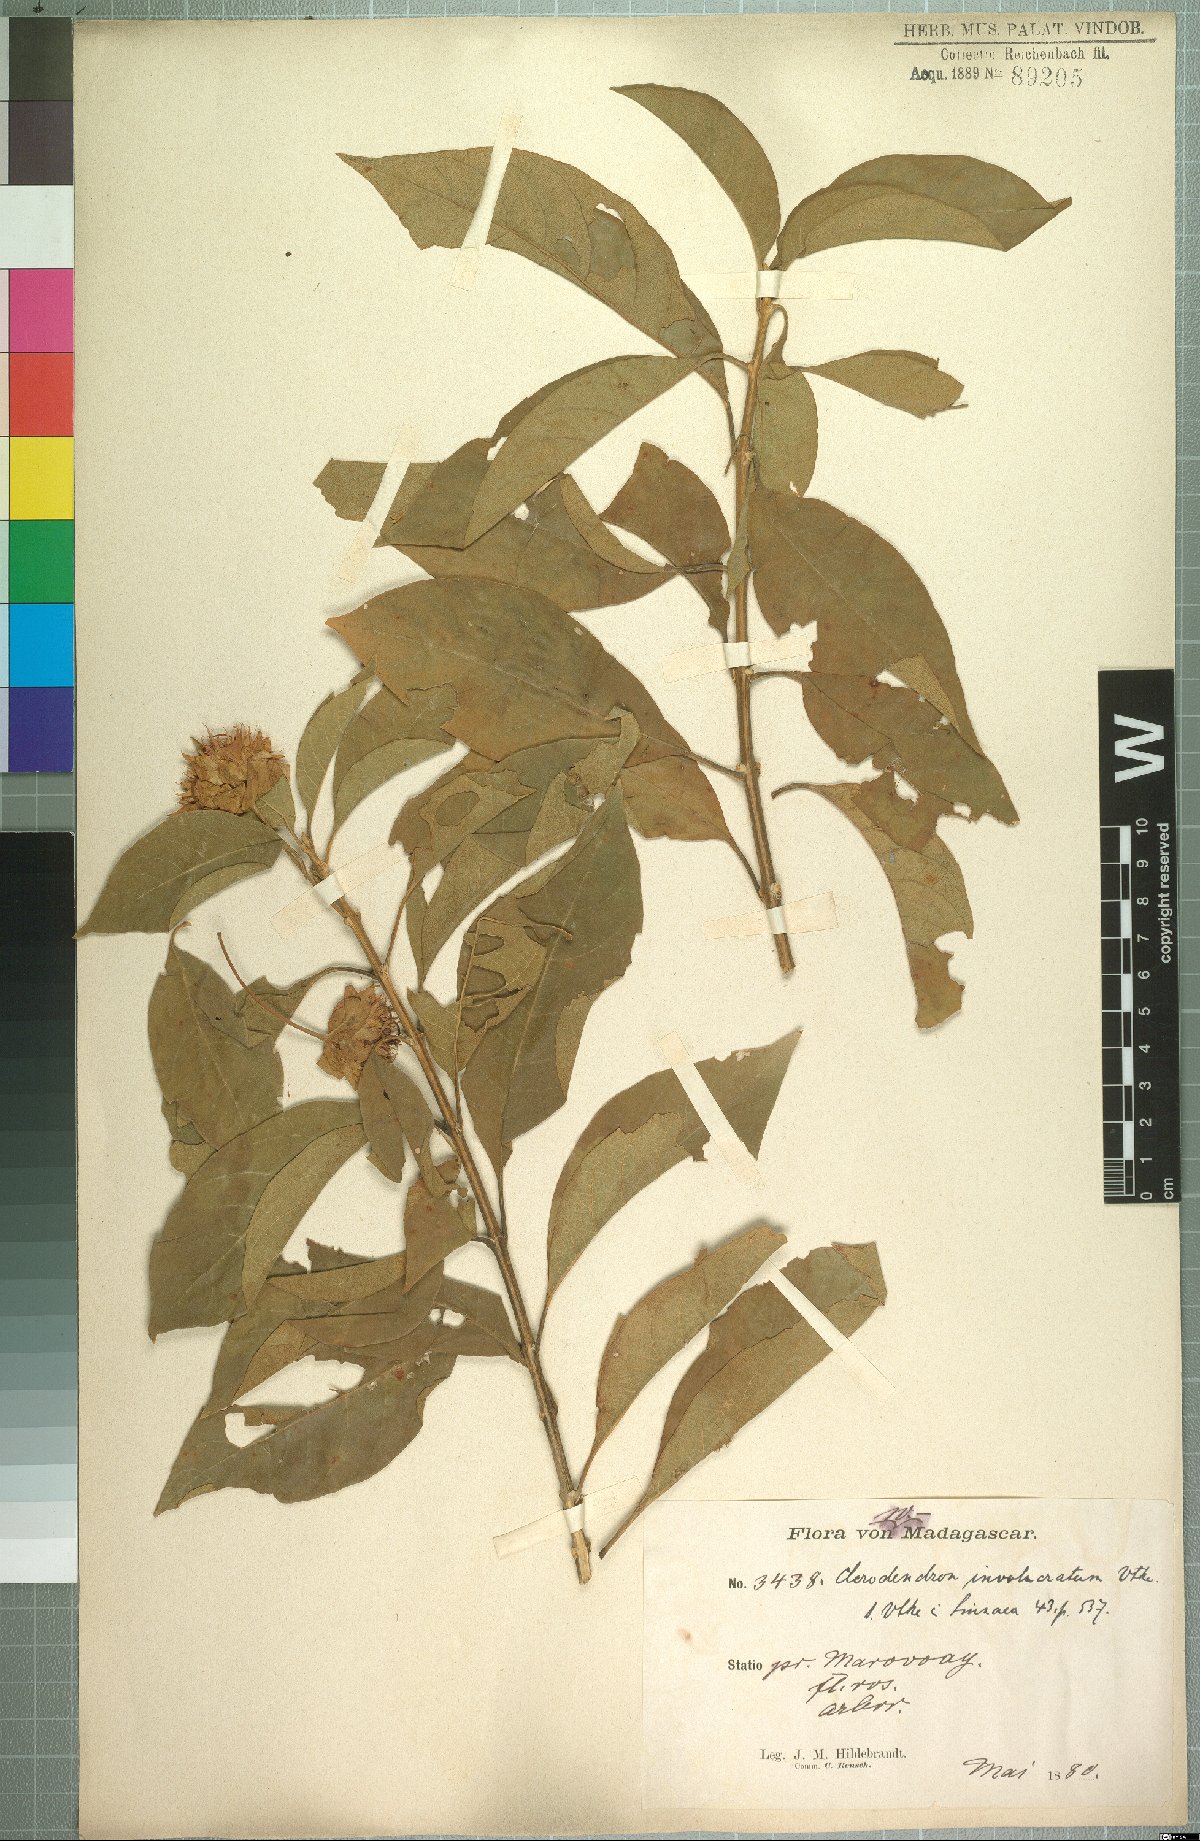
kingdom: Plantae
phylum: Tracheophyta
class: Magnoliopsida
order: Lamiales
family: Lamiaceae
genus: Clerodendrum
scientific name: Clerodendrum involucratum
